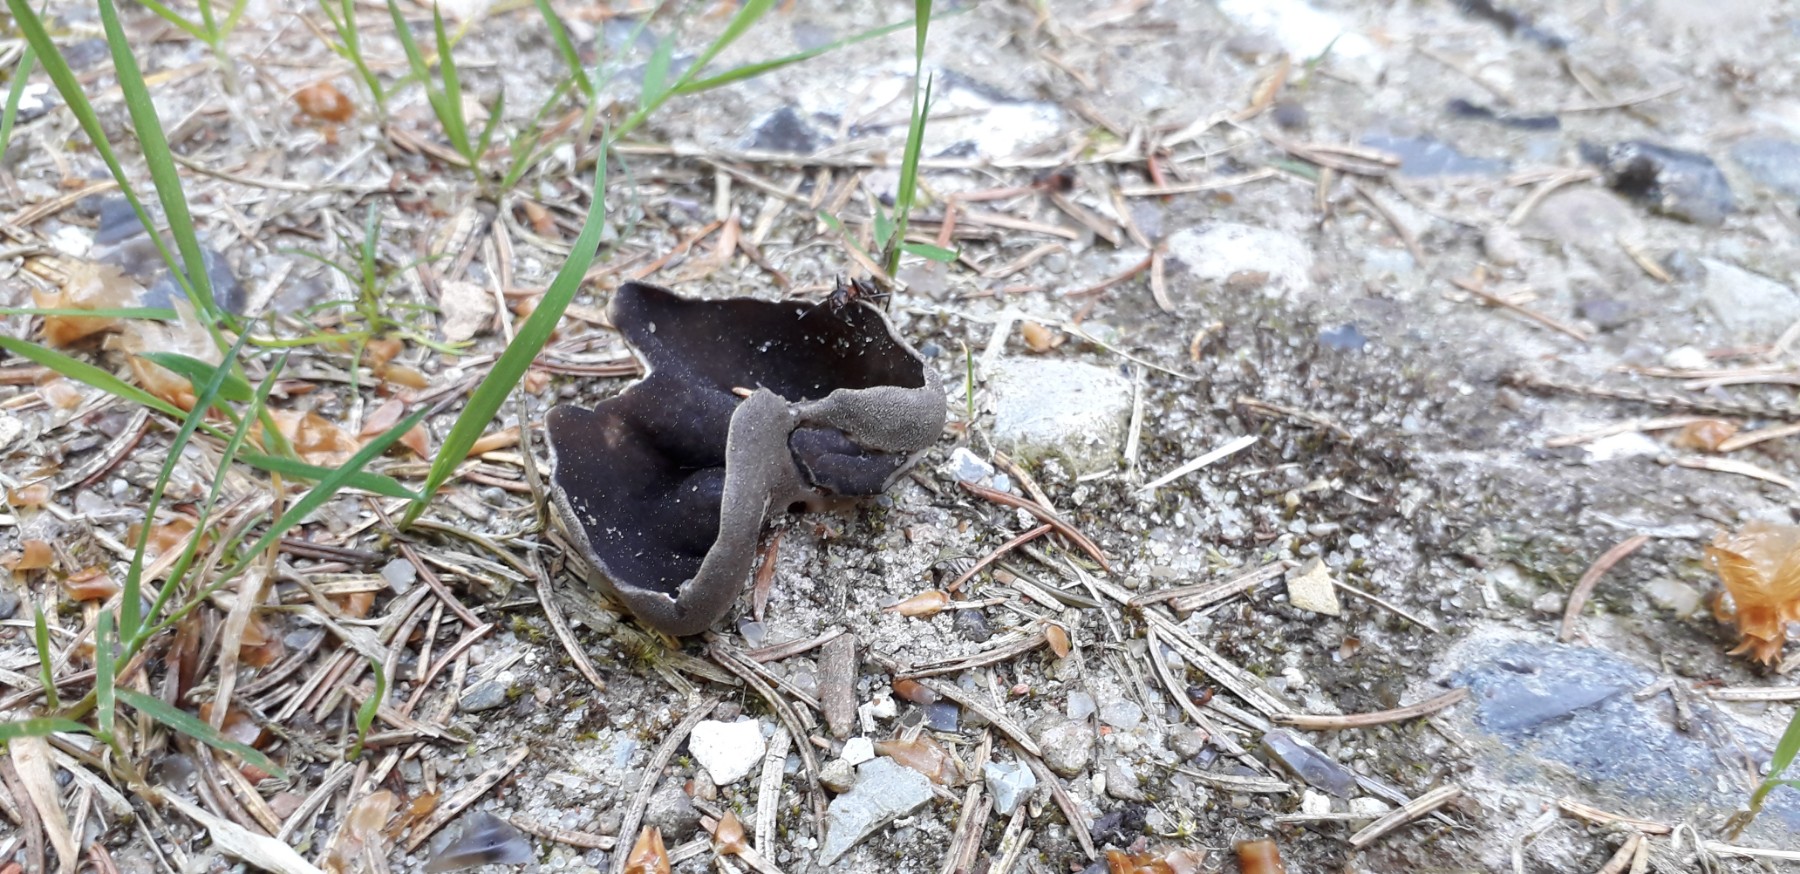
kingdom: Fungi
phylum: Ascomycota
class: Pezizomycetes
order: Pezizales
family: Helvellaceae
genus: Dissingia
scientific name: Dissingia confusa
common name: gran-foldhat
